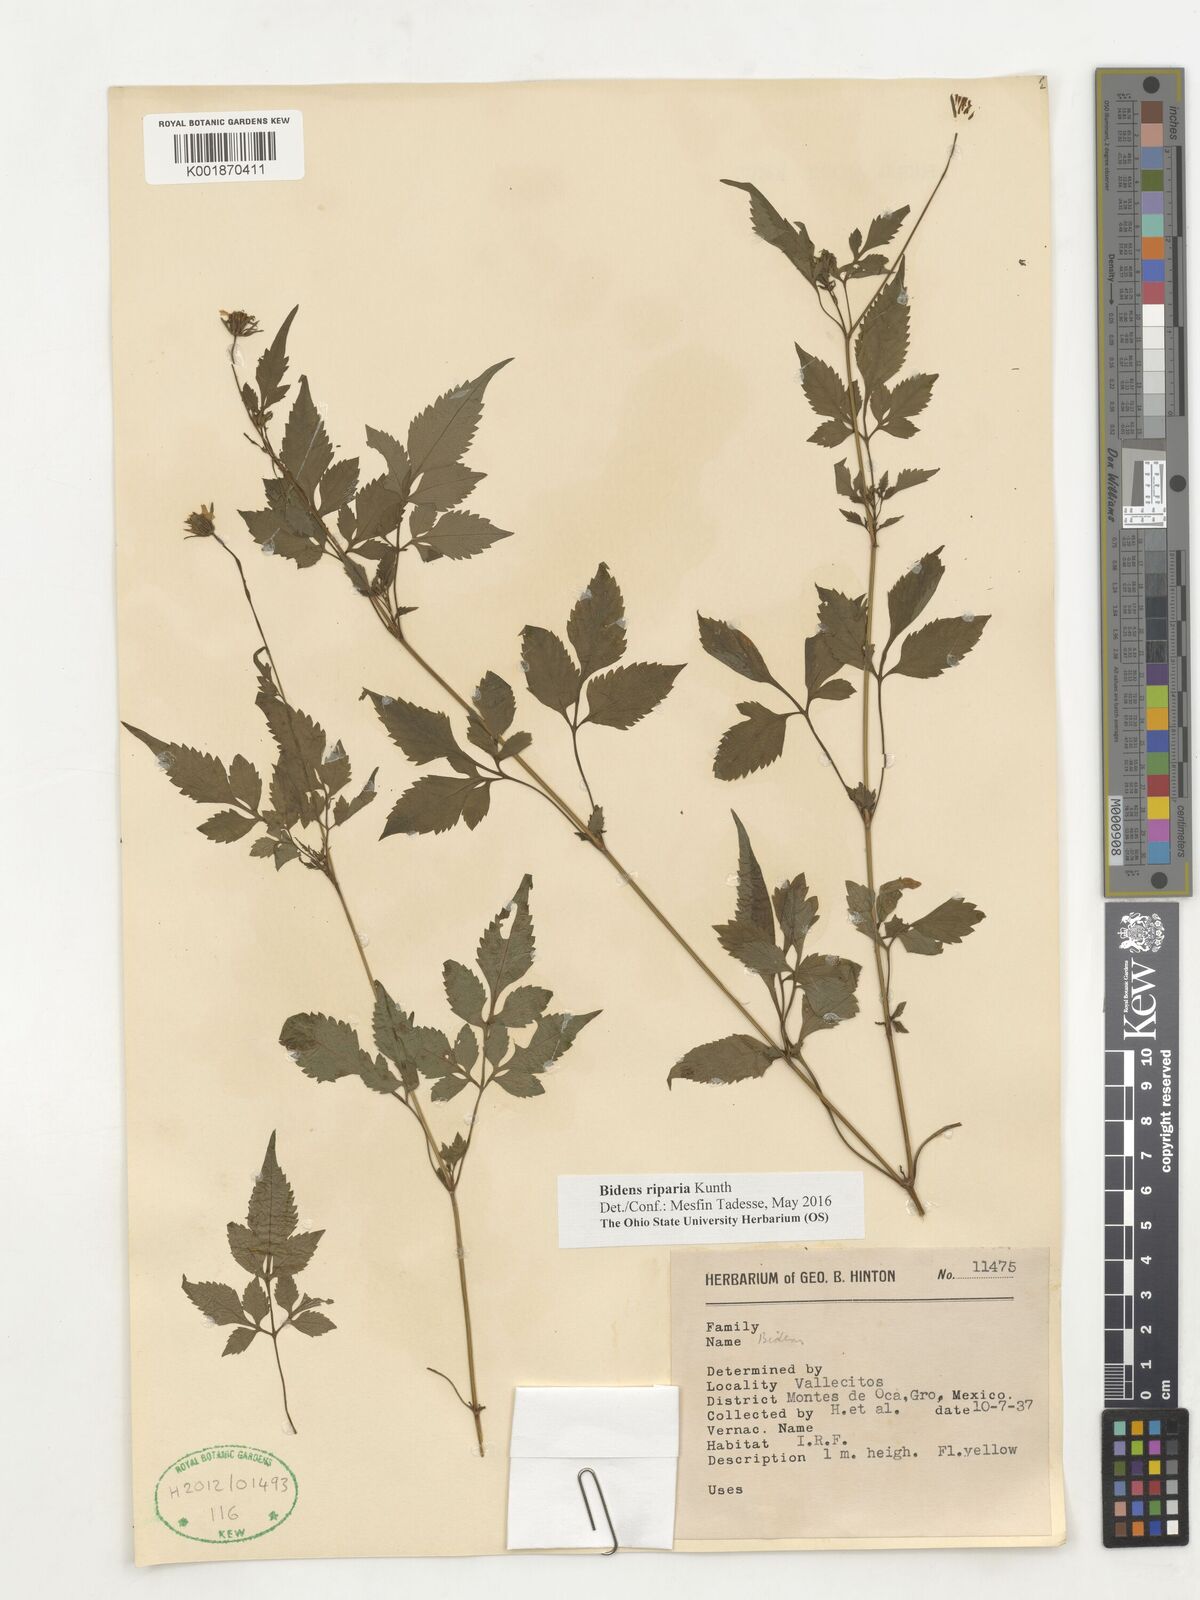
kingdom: Plantae
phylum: Tracheophyta
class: Magnoliopsida
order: Asterales
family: Asteraceae
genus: Bidens
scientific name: Bidens riparia
